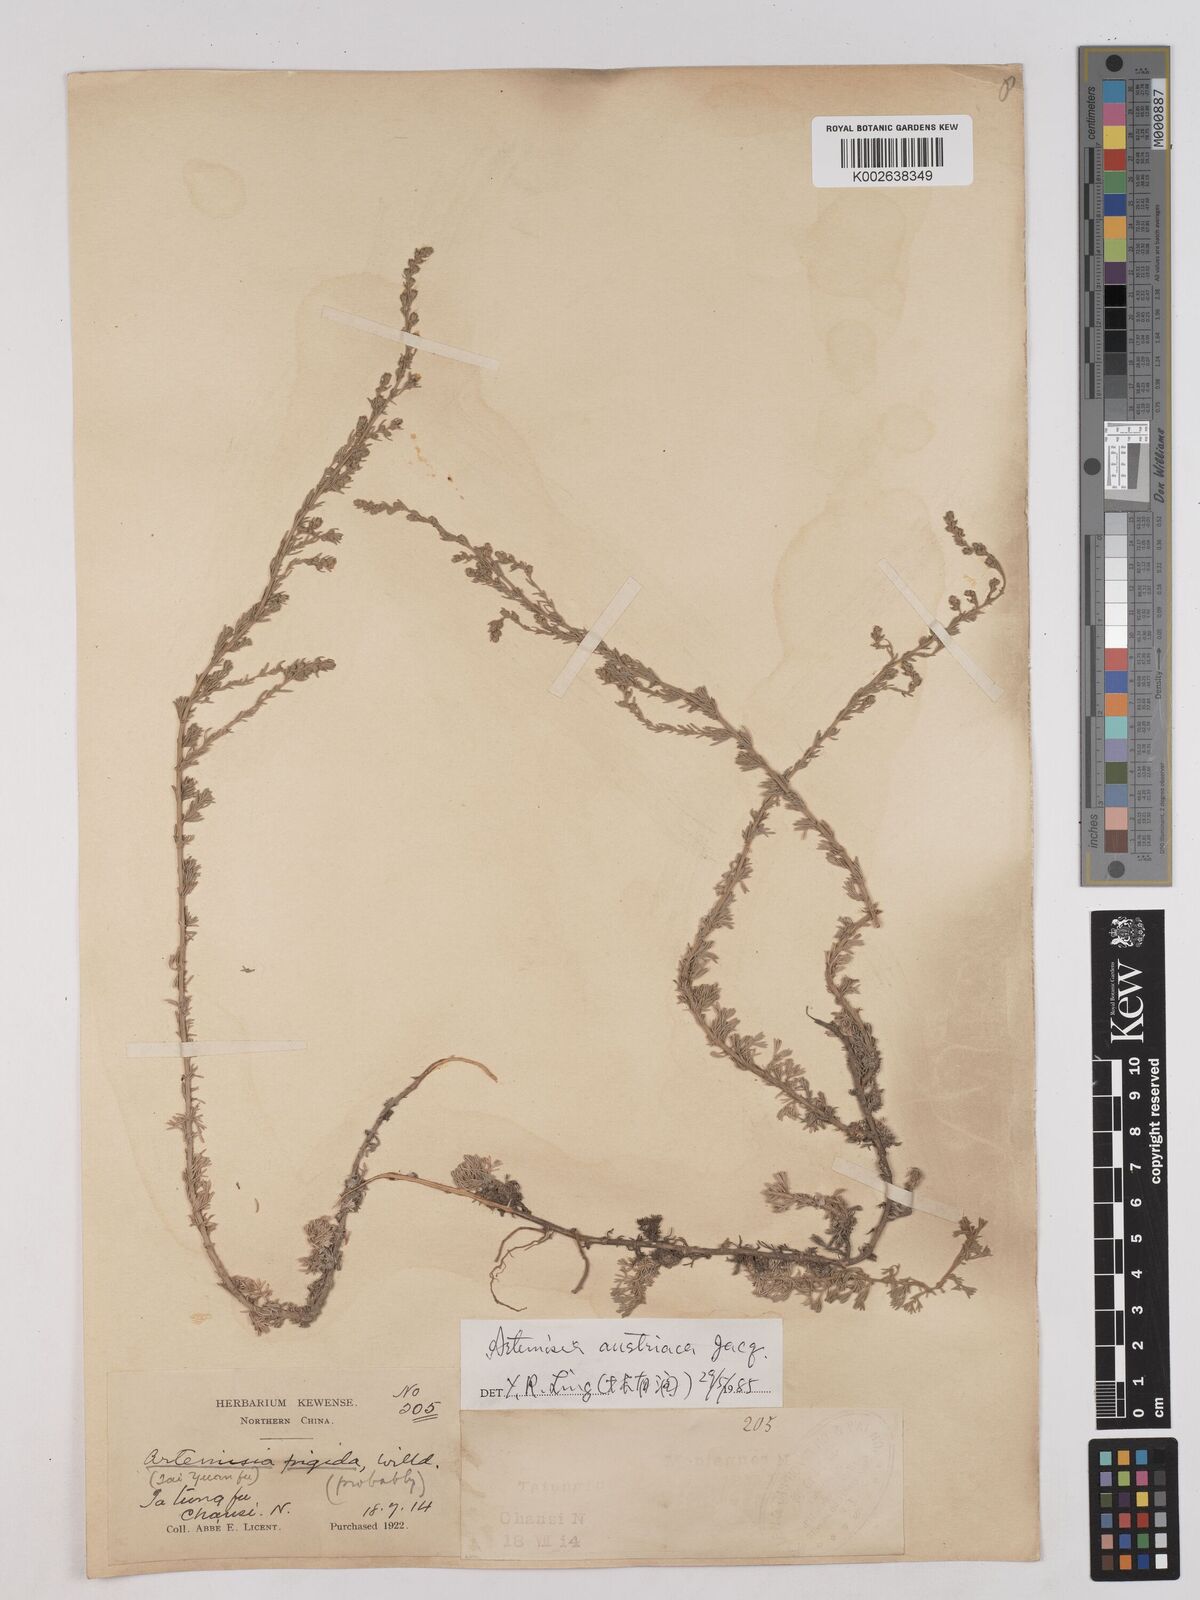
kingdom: Plantae
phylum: Tracheophyta
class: Magnoliopsida
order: Asterales
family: Asteraceae
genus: Artemisia
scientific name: Artemisia austriaca
